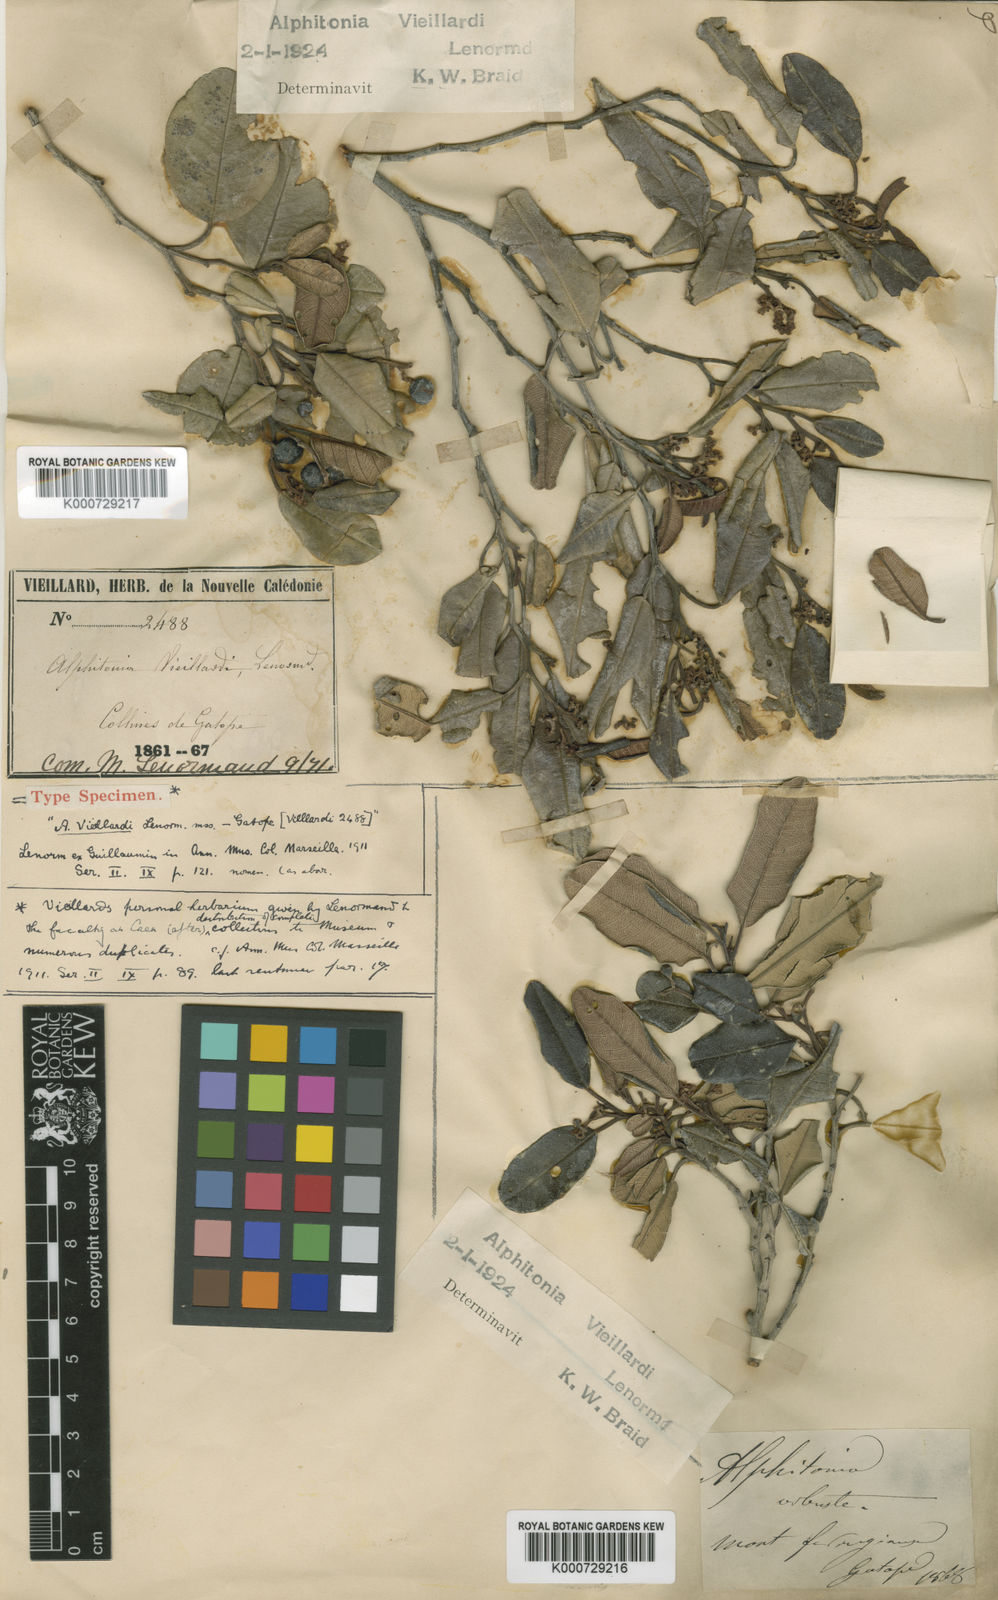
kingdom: Plantae
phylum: Tracheophyta
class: Magnoliopsida
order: Rosales
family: Rhamnaceae
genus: Alphitonia
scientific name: Alphitonia neocaledonica
